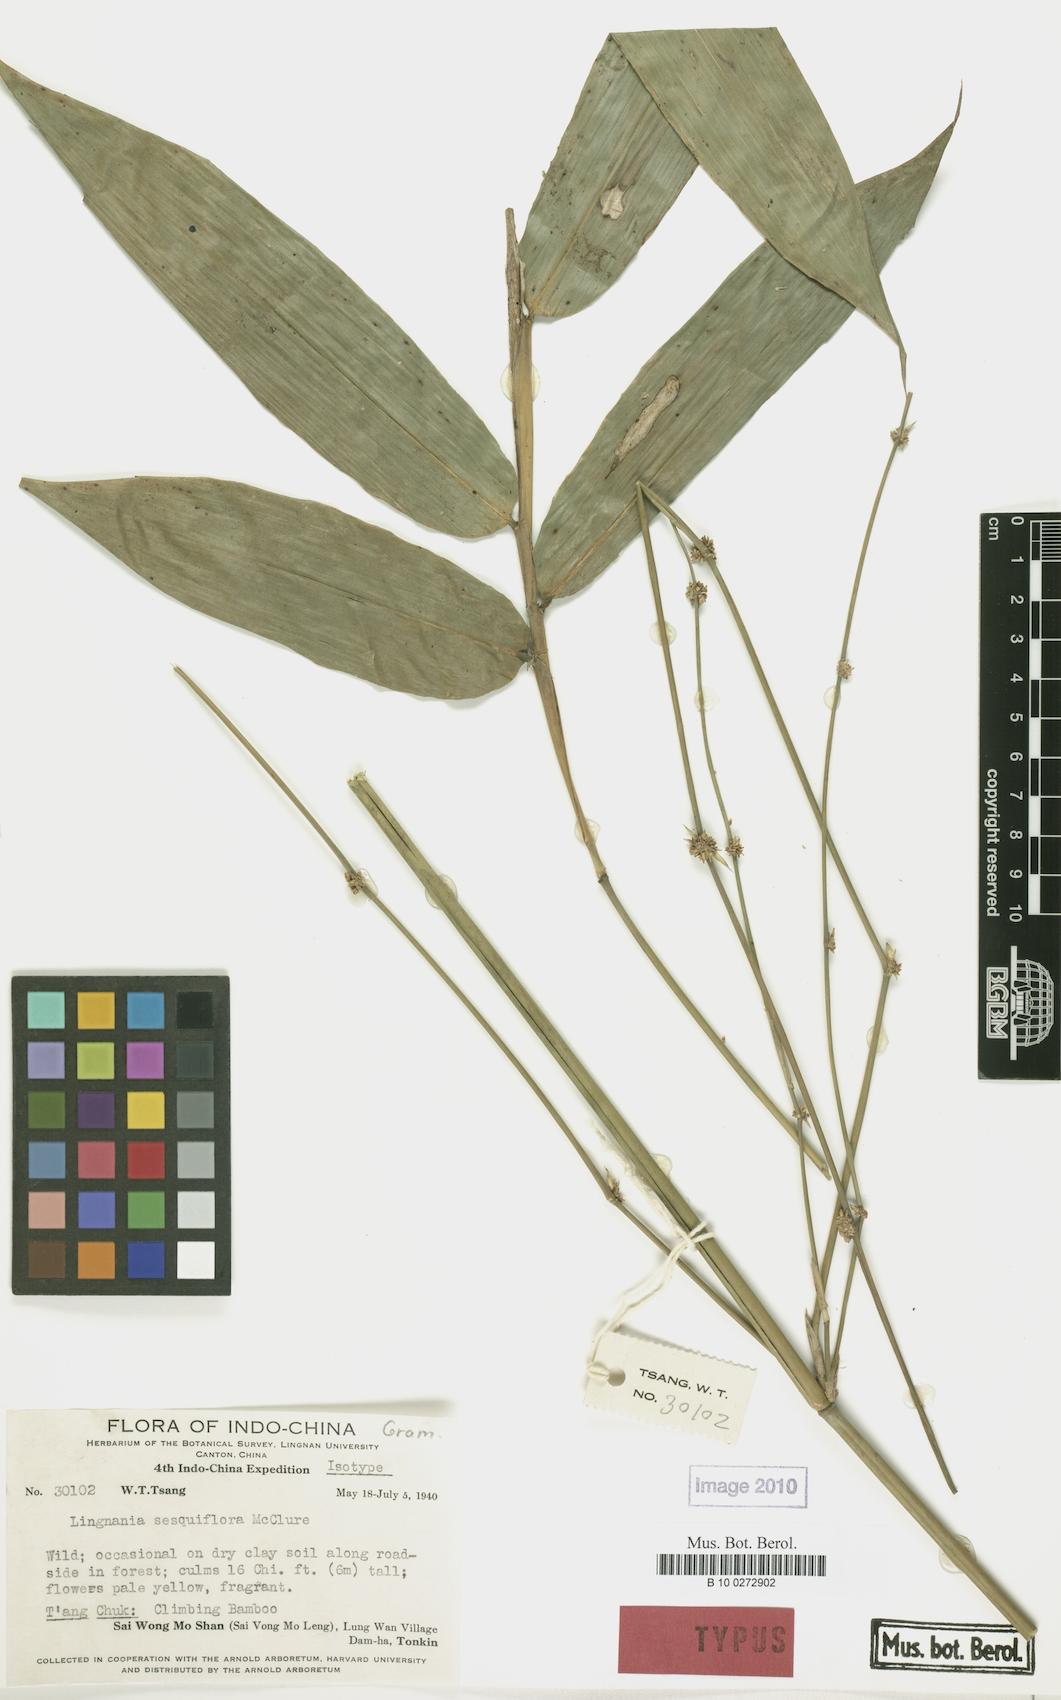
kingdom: Plantae
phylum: Tracheophyta
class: Liliopsida
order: Poales
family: Poaceae
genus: Bambusa
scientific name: Bambusa sesquiflora
